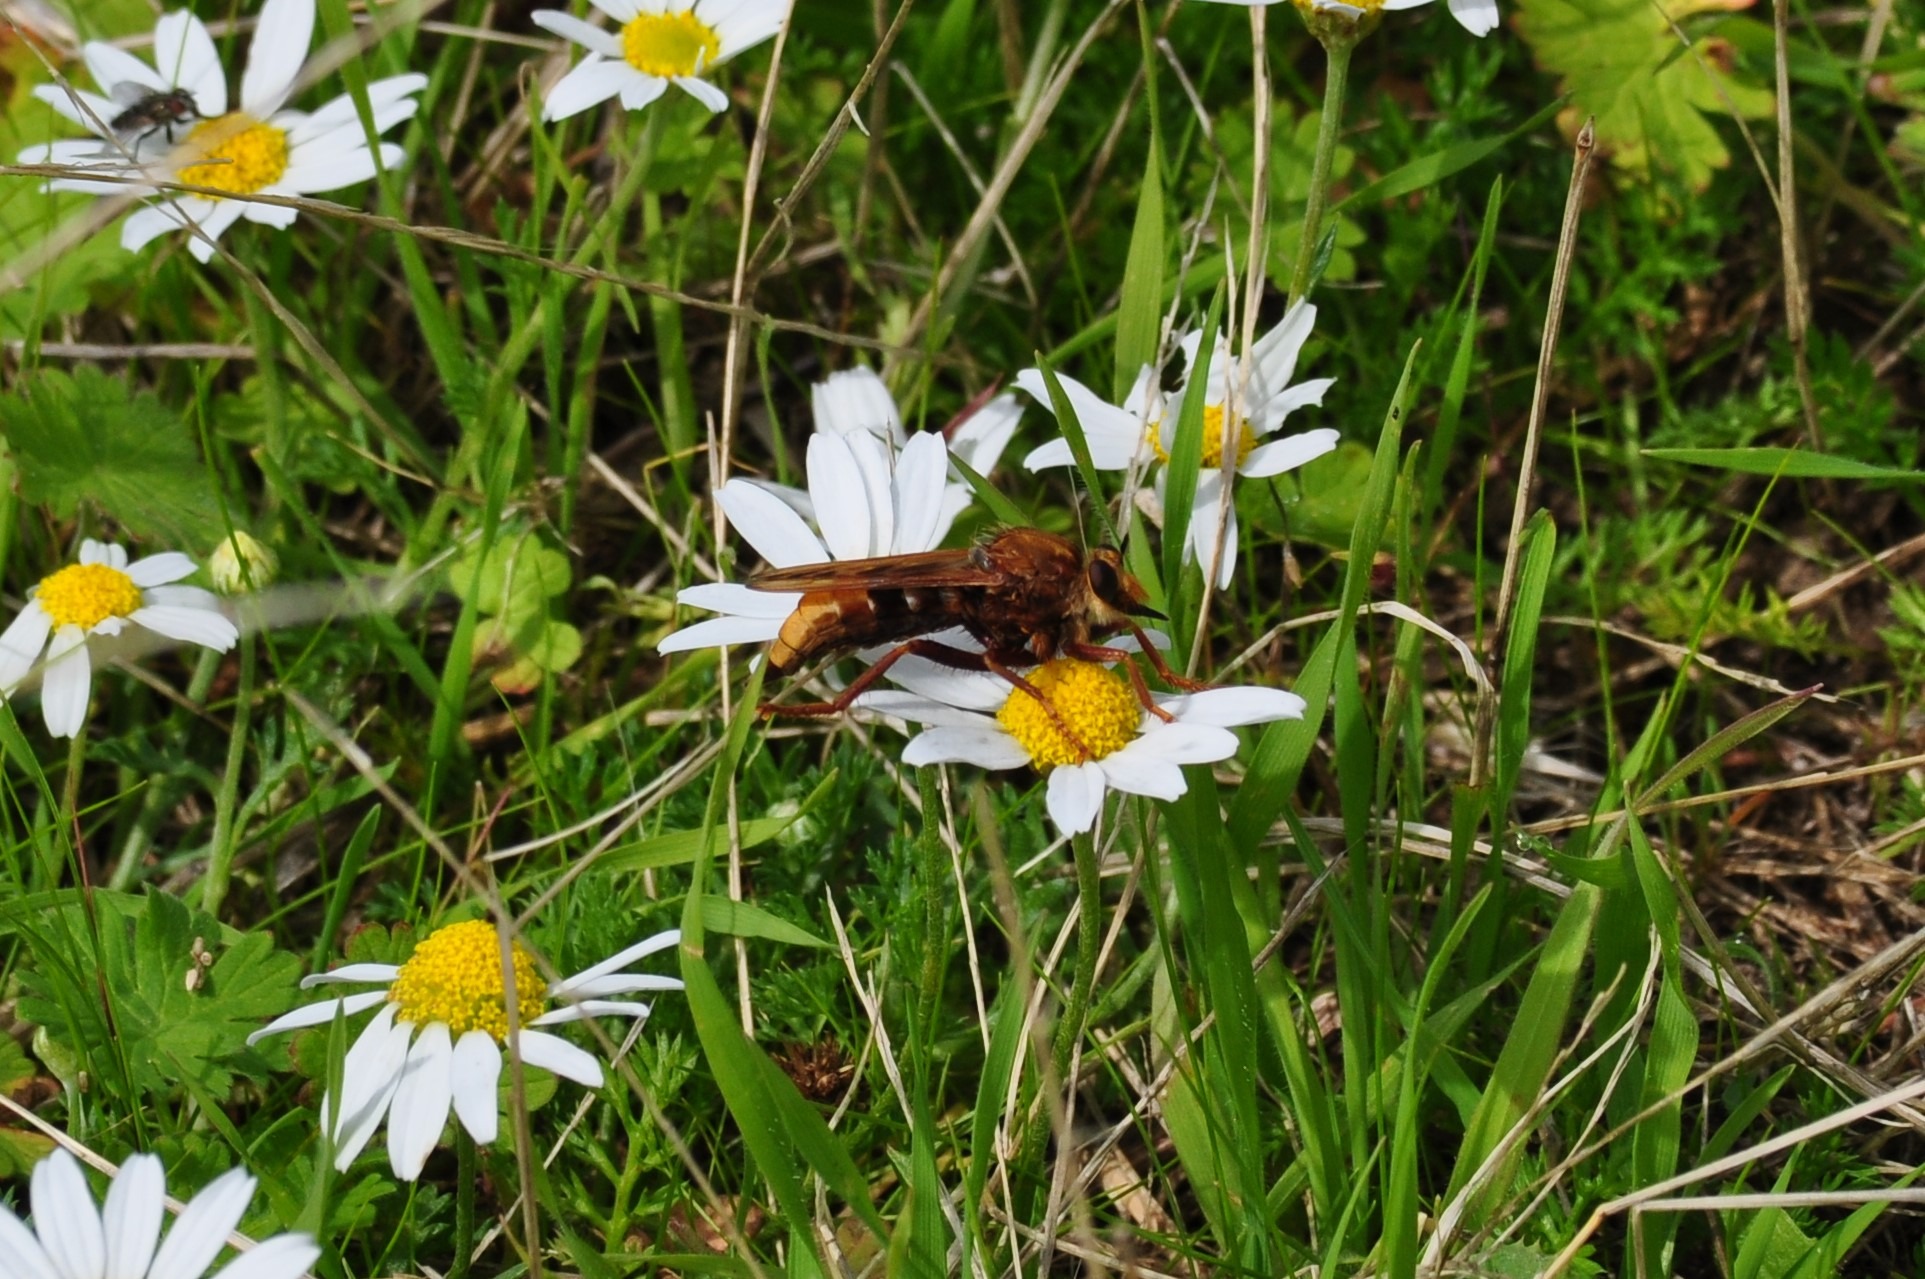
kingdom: Animalia
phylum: Arthropoda
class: Insecta
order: Diptera
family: Asilidae
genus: Asilus
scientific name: Asilus crabroniformis
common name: Stor gødningsrovflue
